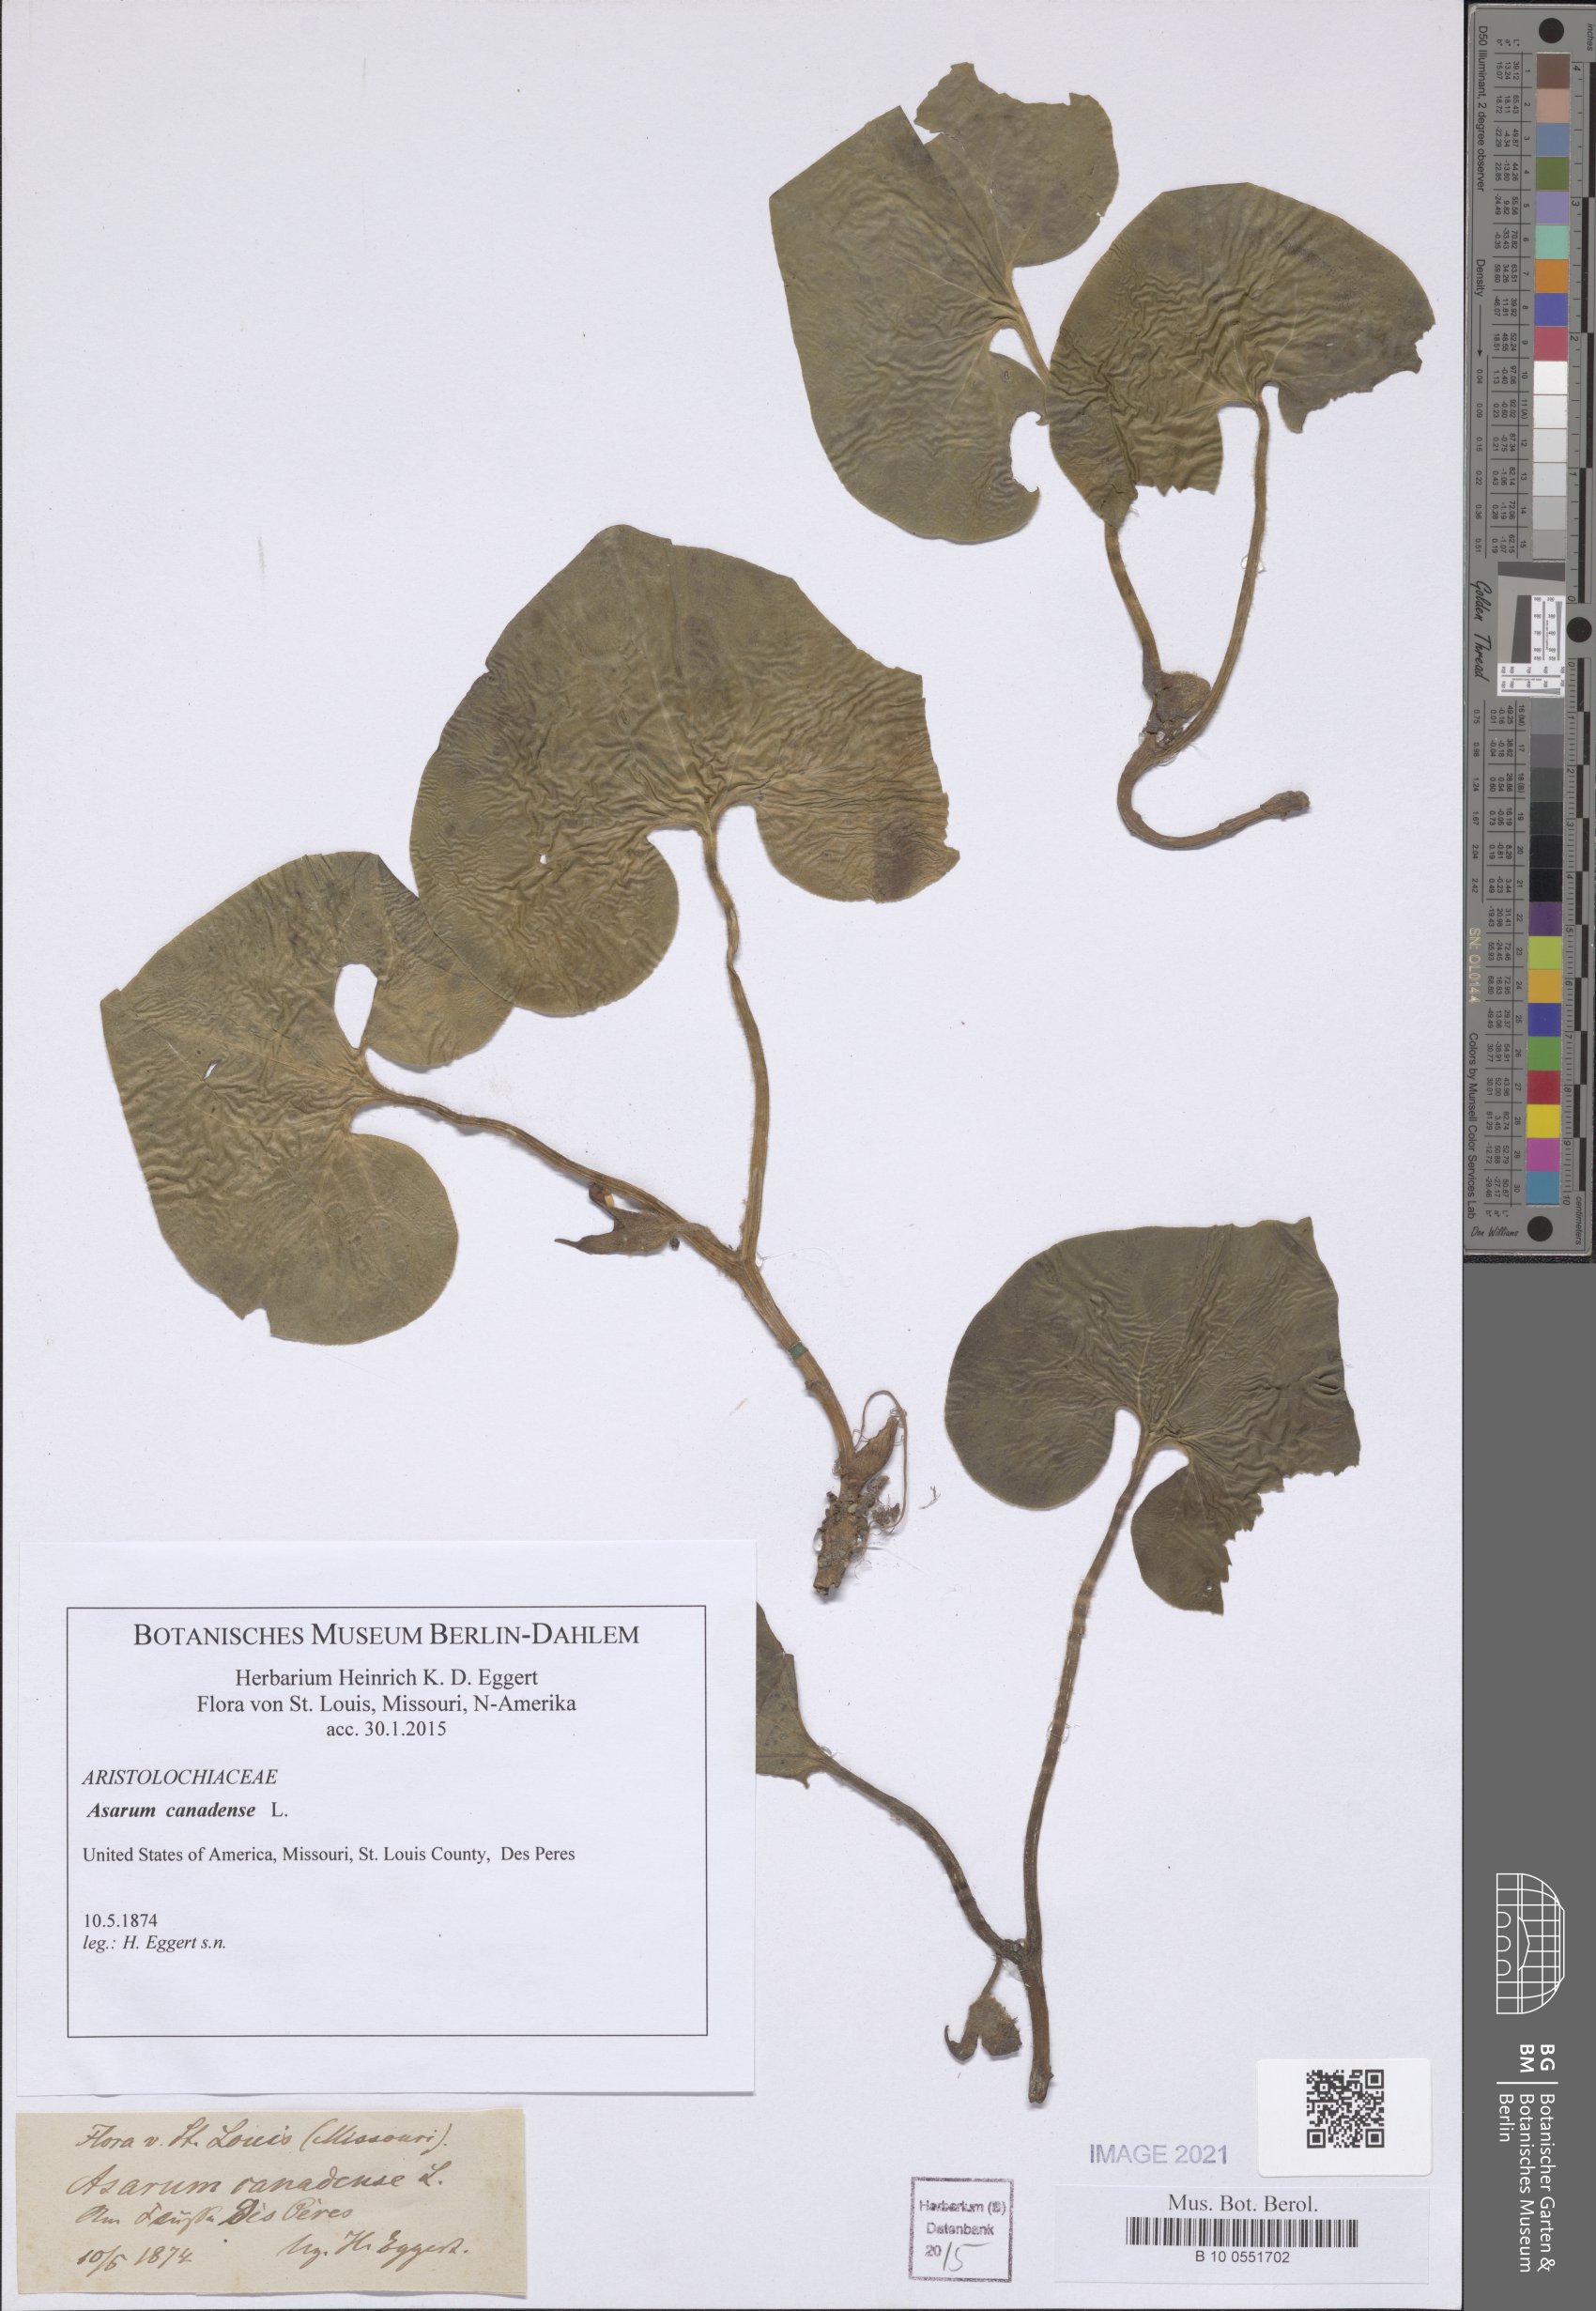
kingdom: Plantae
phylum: Tracheophyta
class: Magnoliopsida
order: Piperales
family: Aristolochiaceae
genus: Asarum
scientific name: Asarum canadense
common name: Wild ginger
